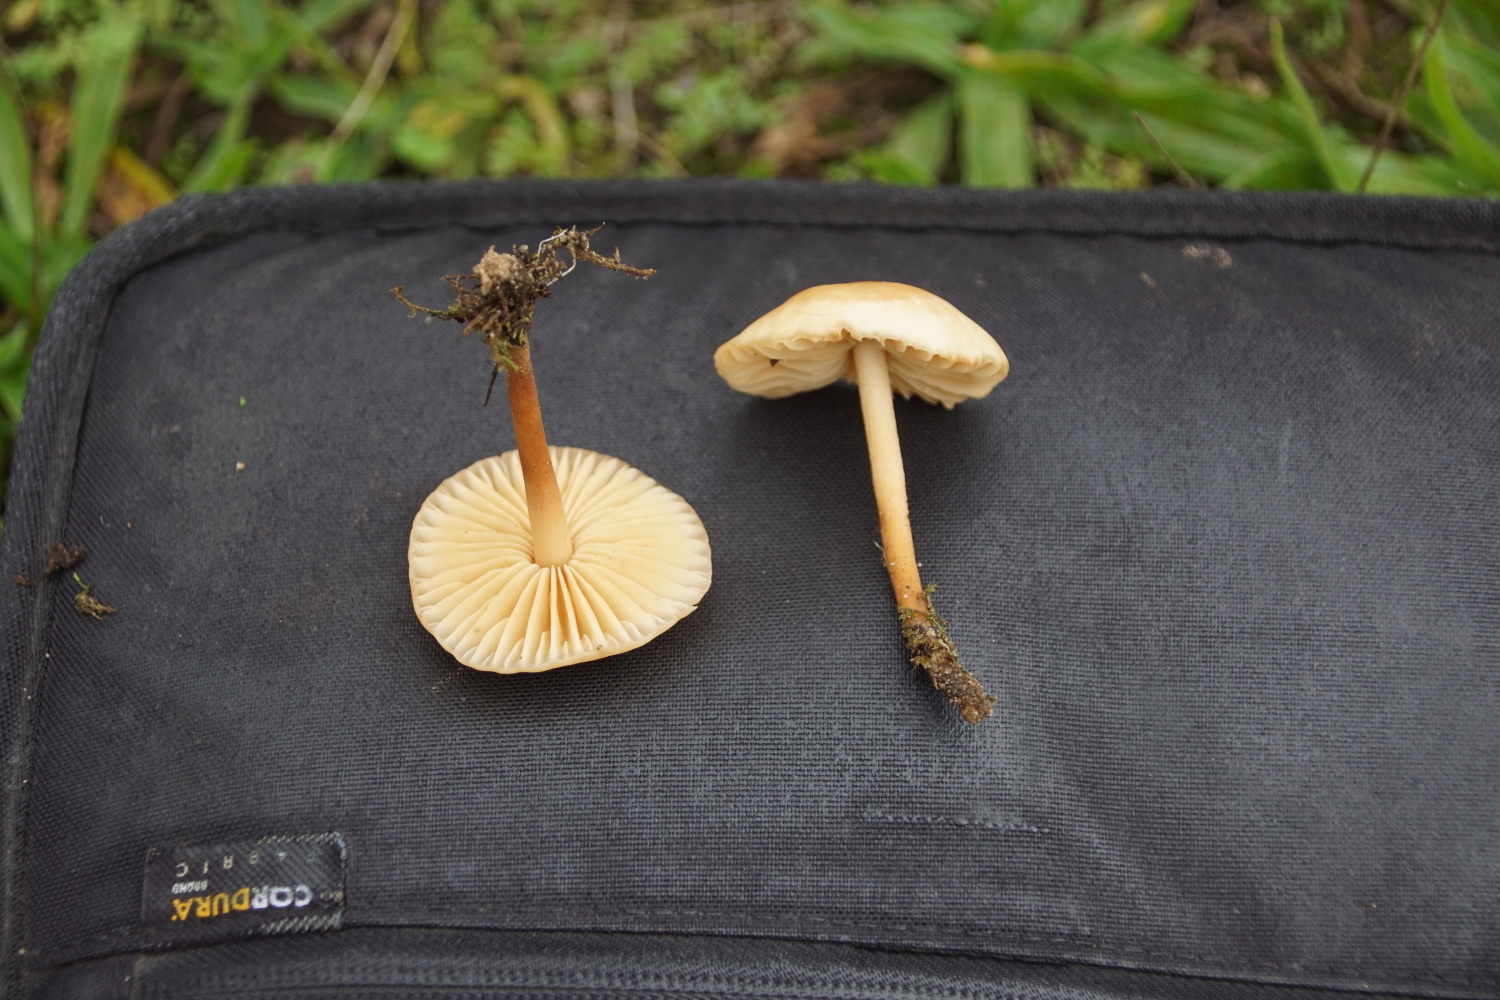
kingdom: Fungi
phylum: Basidiomycota
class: Agaricomycetes
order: Agaricales
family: Marasmiaceae
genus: Marasmius
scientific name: Marasmius oreades
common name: elledans-bruskhat
